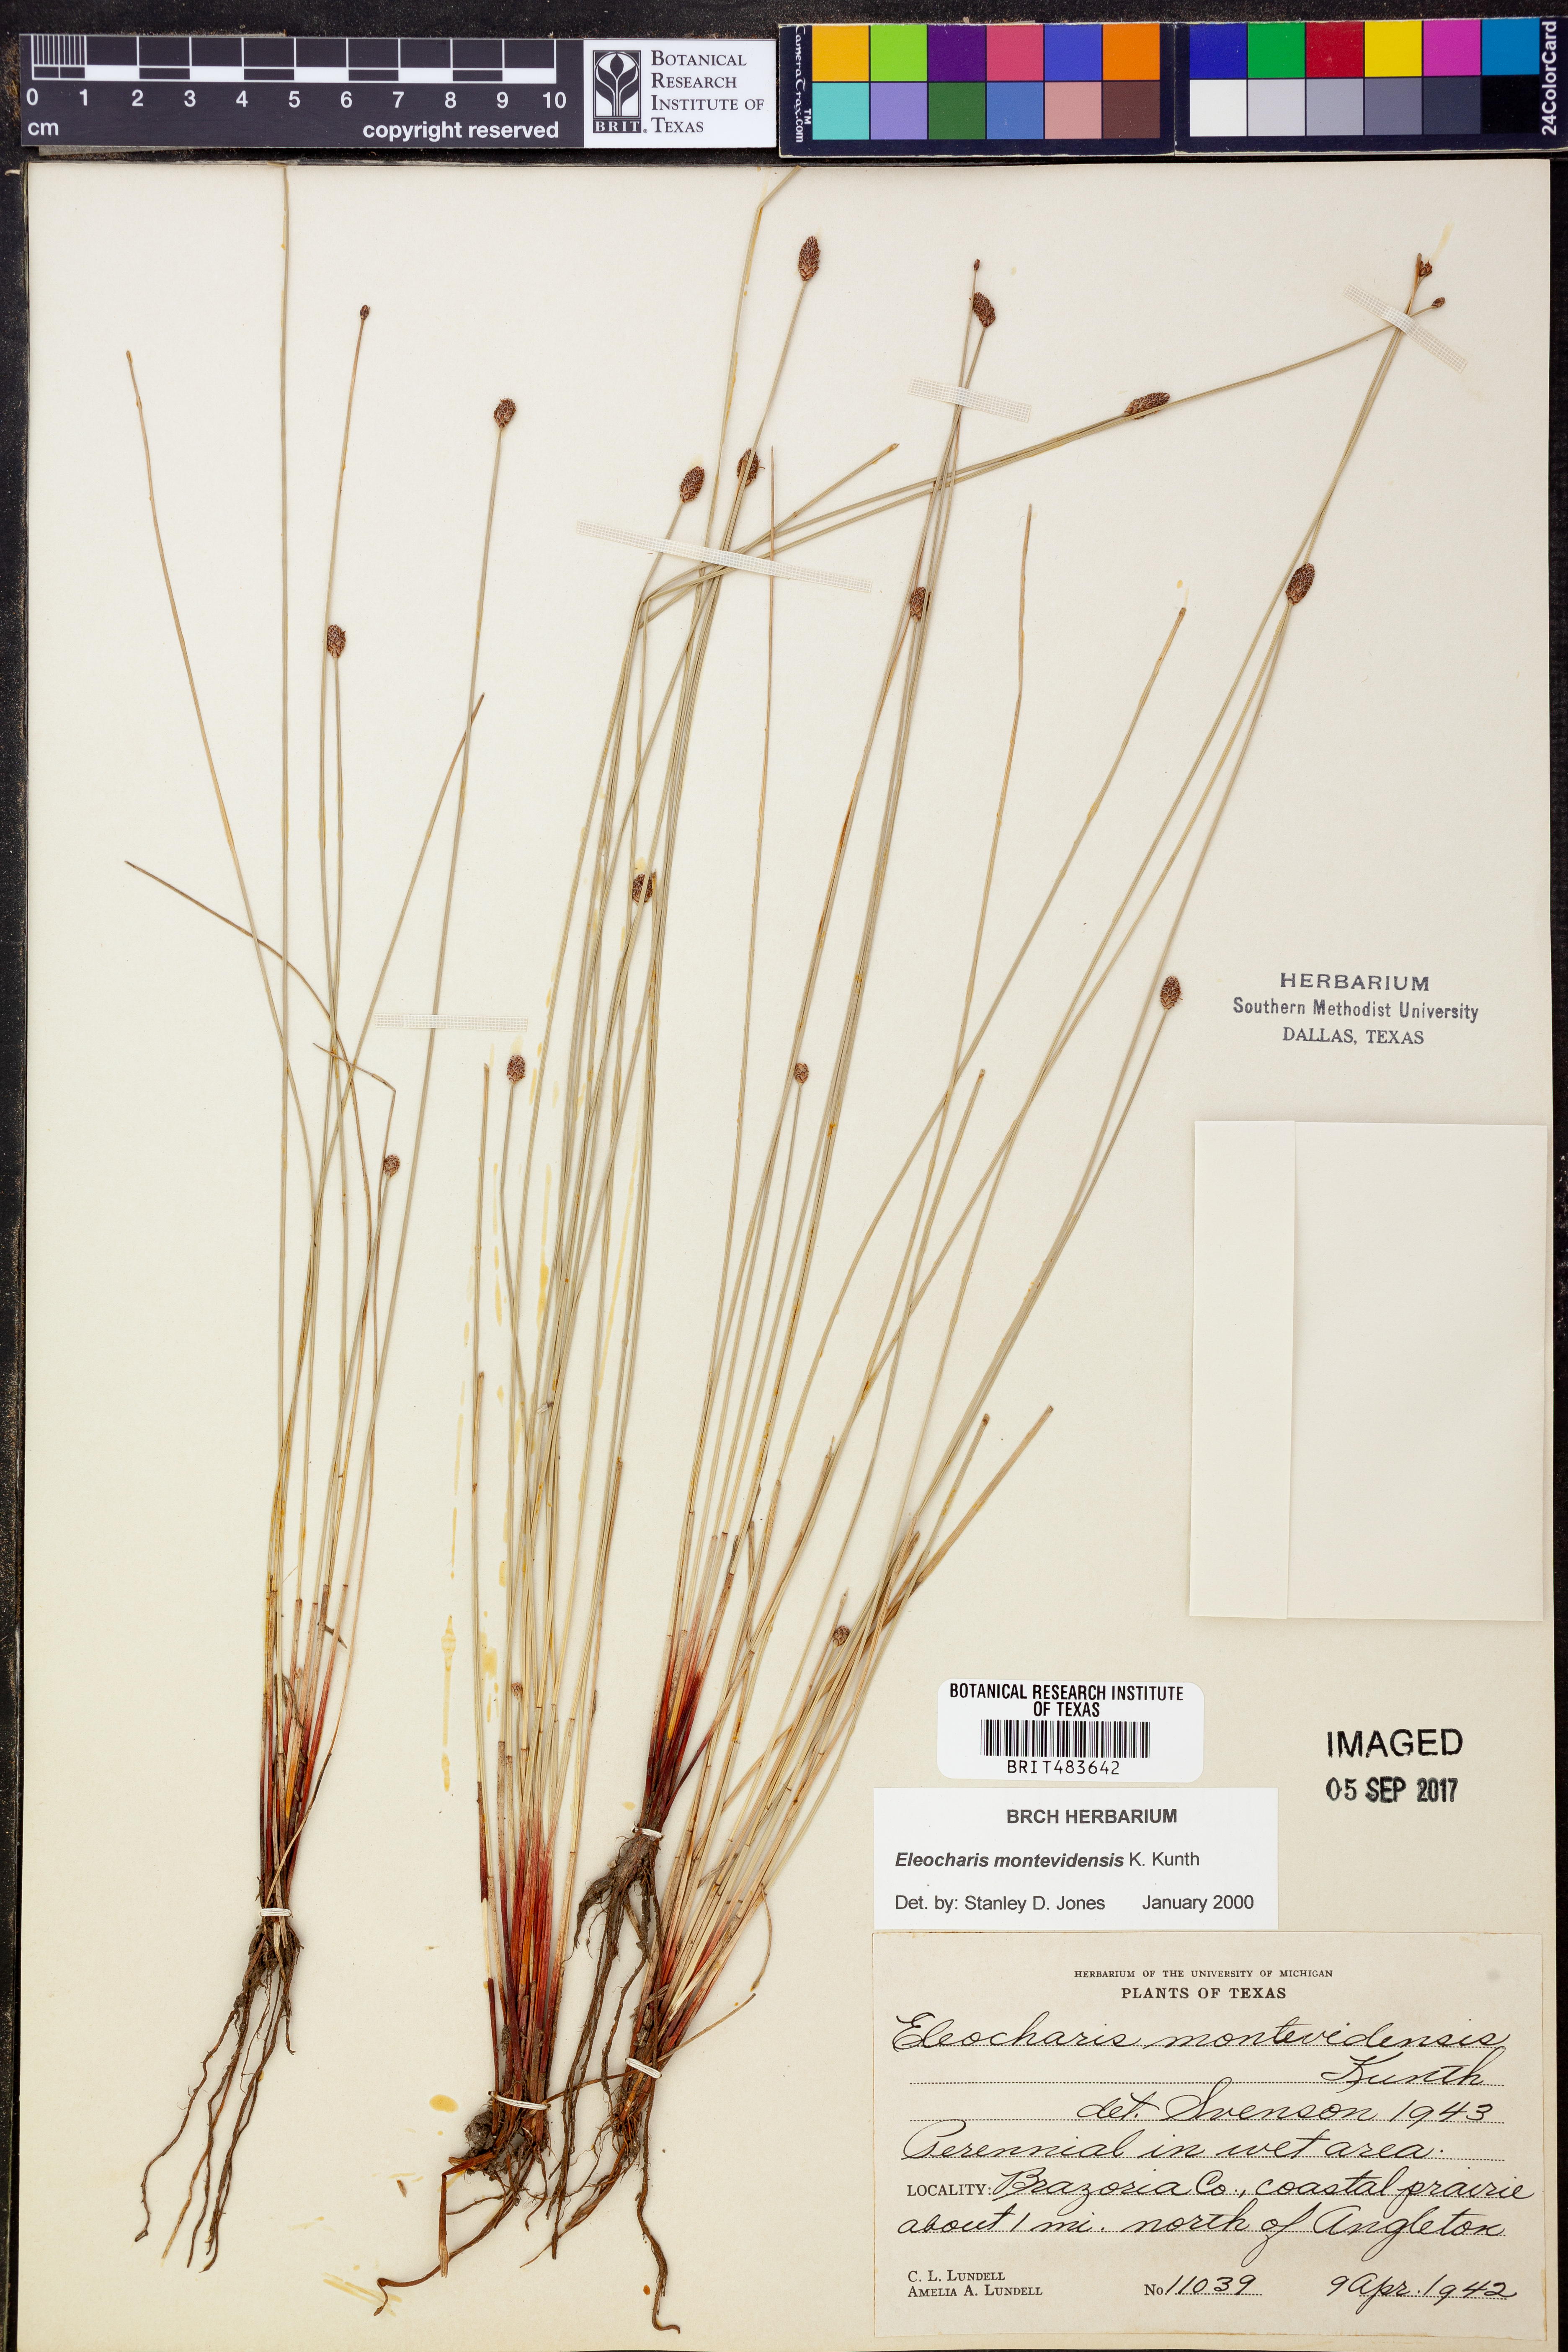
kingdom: Plantae
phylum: Tracheophyta
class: Liliopsida
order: Poales
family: Cyperaceae
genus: Eleocharis
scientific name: Eleocharis montevidensis
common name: Sand spike-rush
